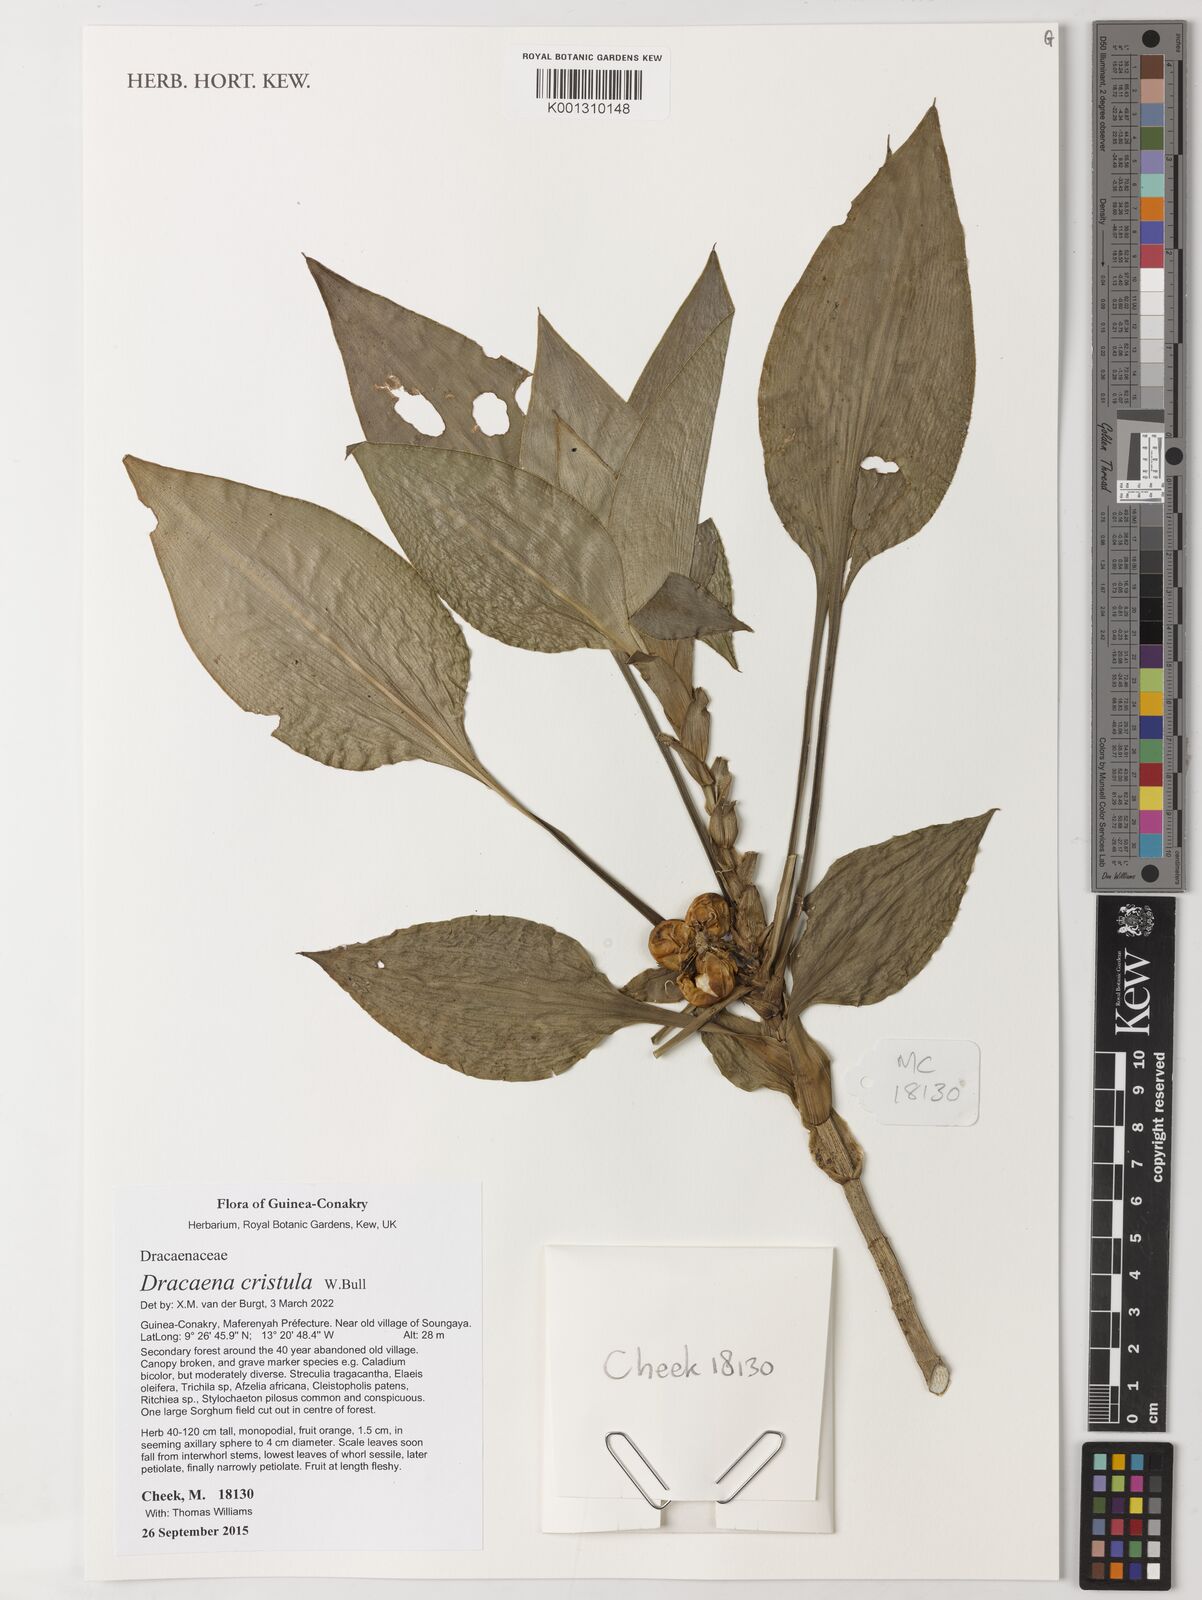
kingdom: Plantae
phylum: Tracheophyta
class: Liliopsida
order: Asparagales
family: Asparagaceae
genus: Dracaena
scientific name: Dracaena cristula
